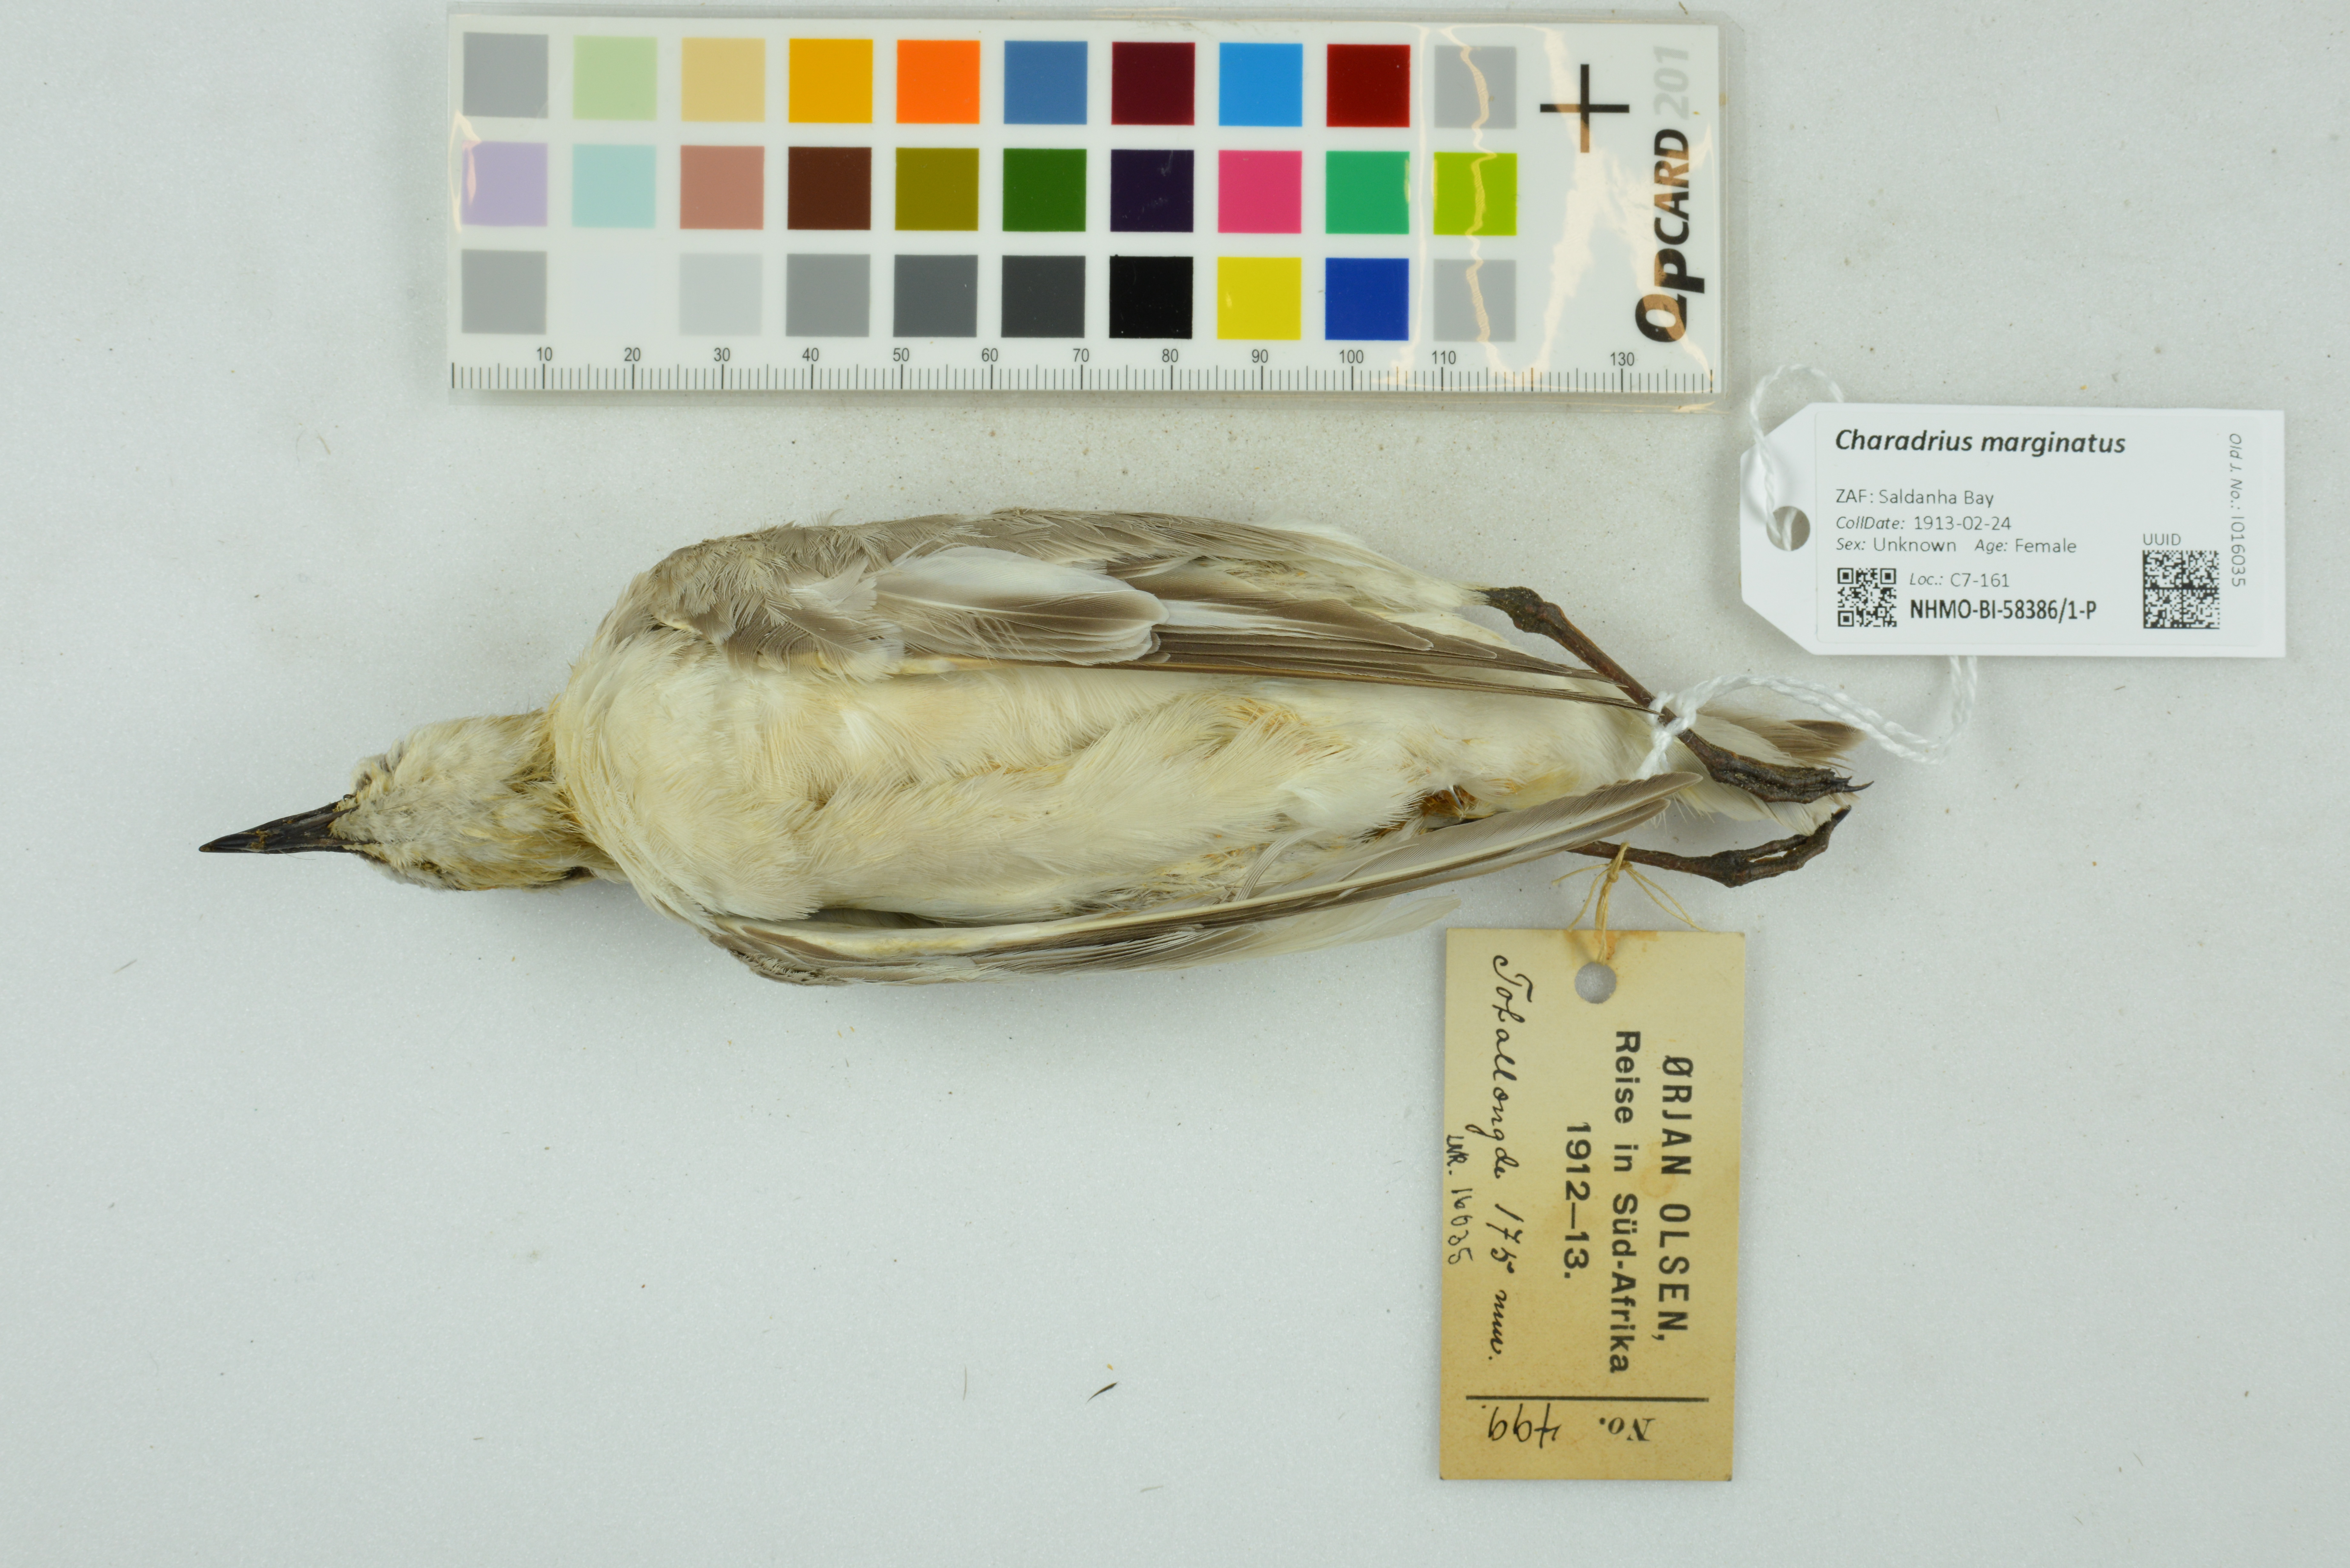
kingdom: Animalia
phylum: Chordata
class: Aves
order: Charadriiformes
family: Charadriidae
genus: Charadrius
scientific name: Charadrius marginatus
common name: White-fronted plover
